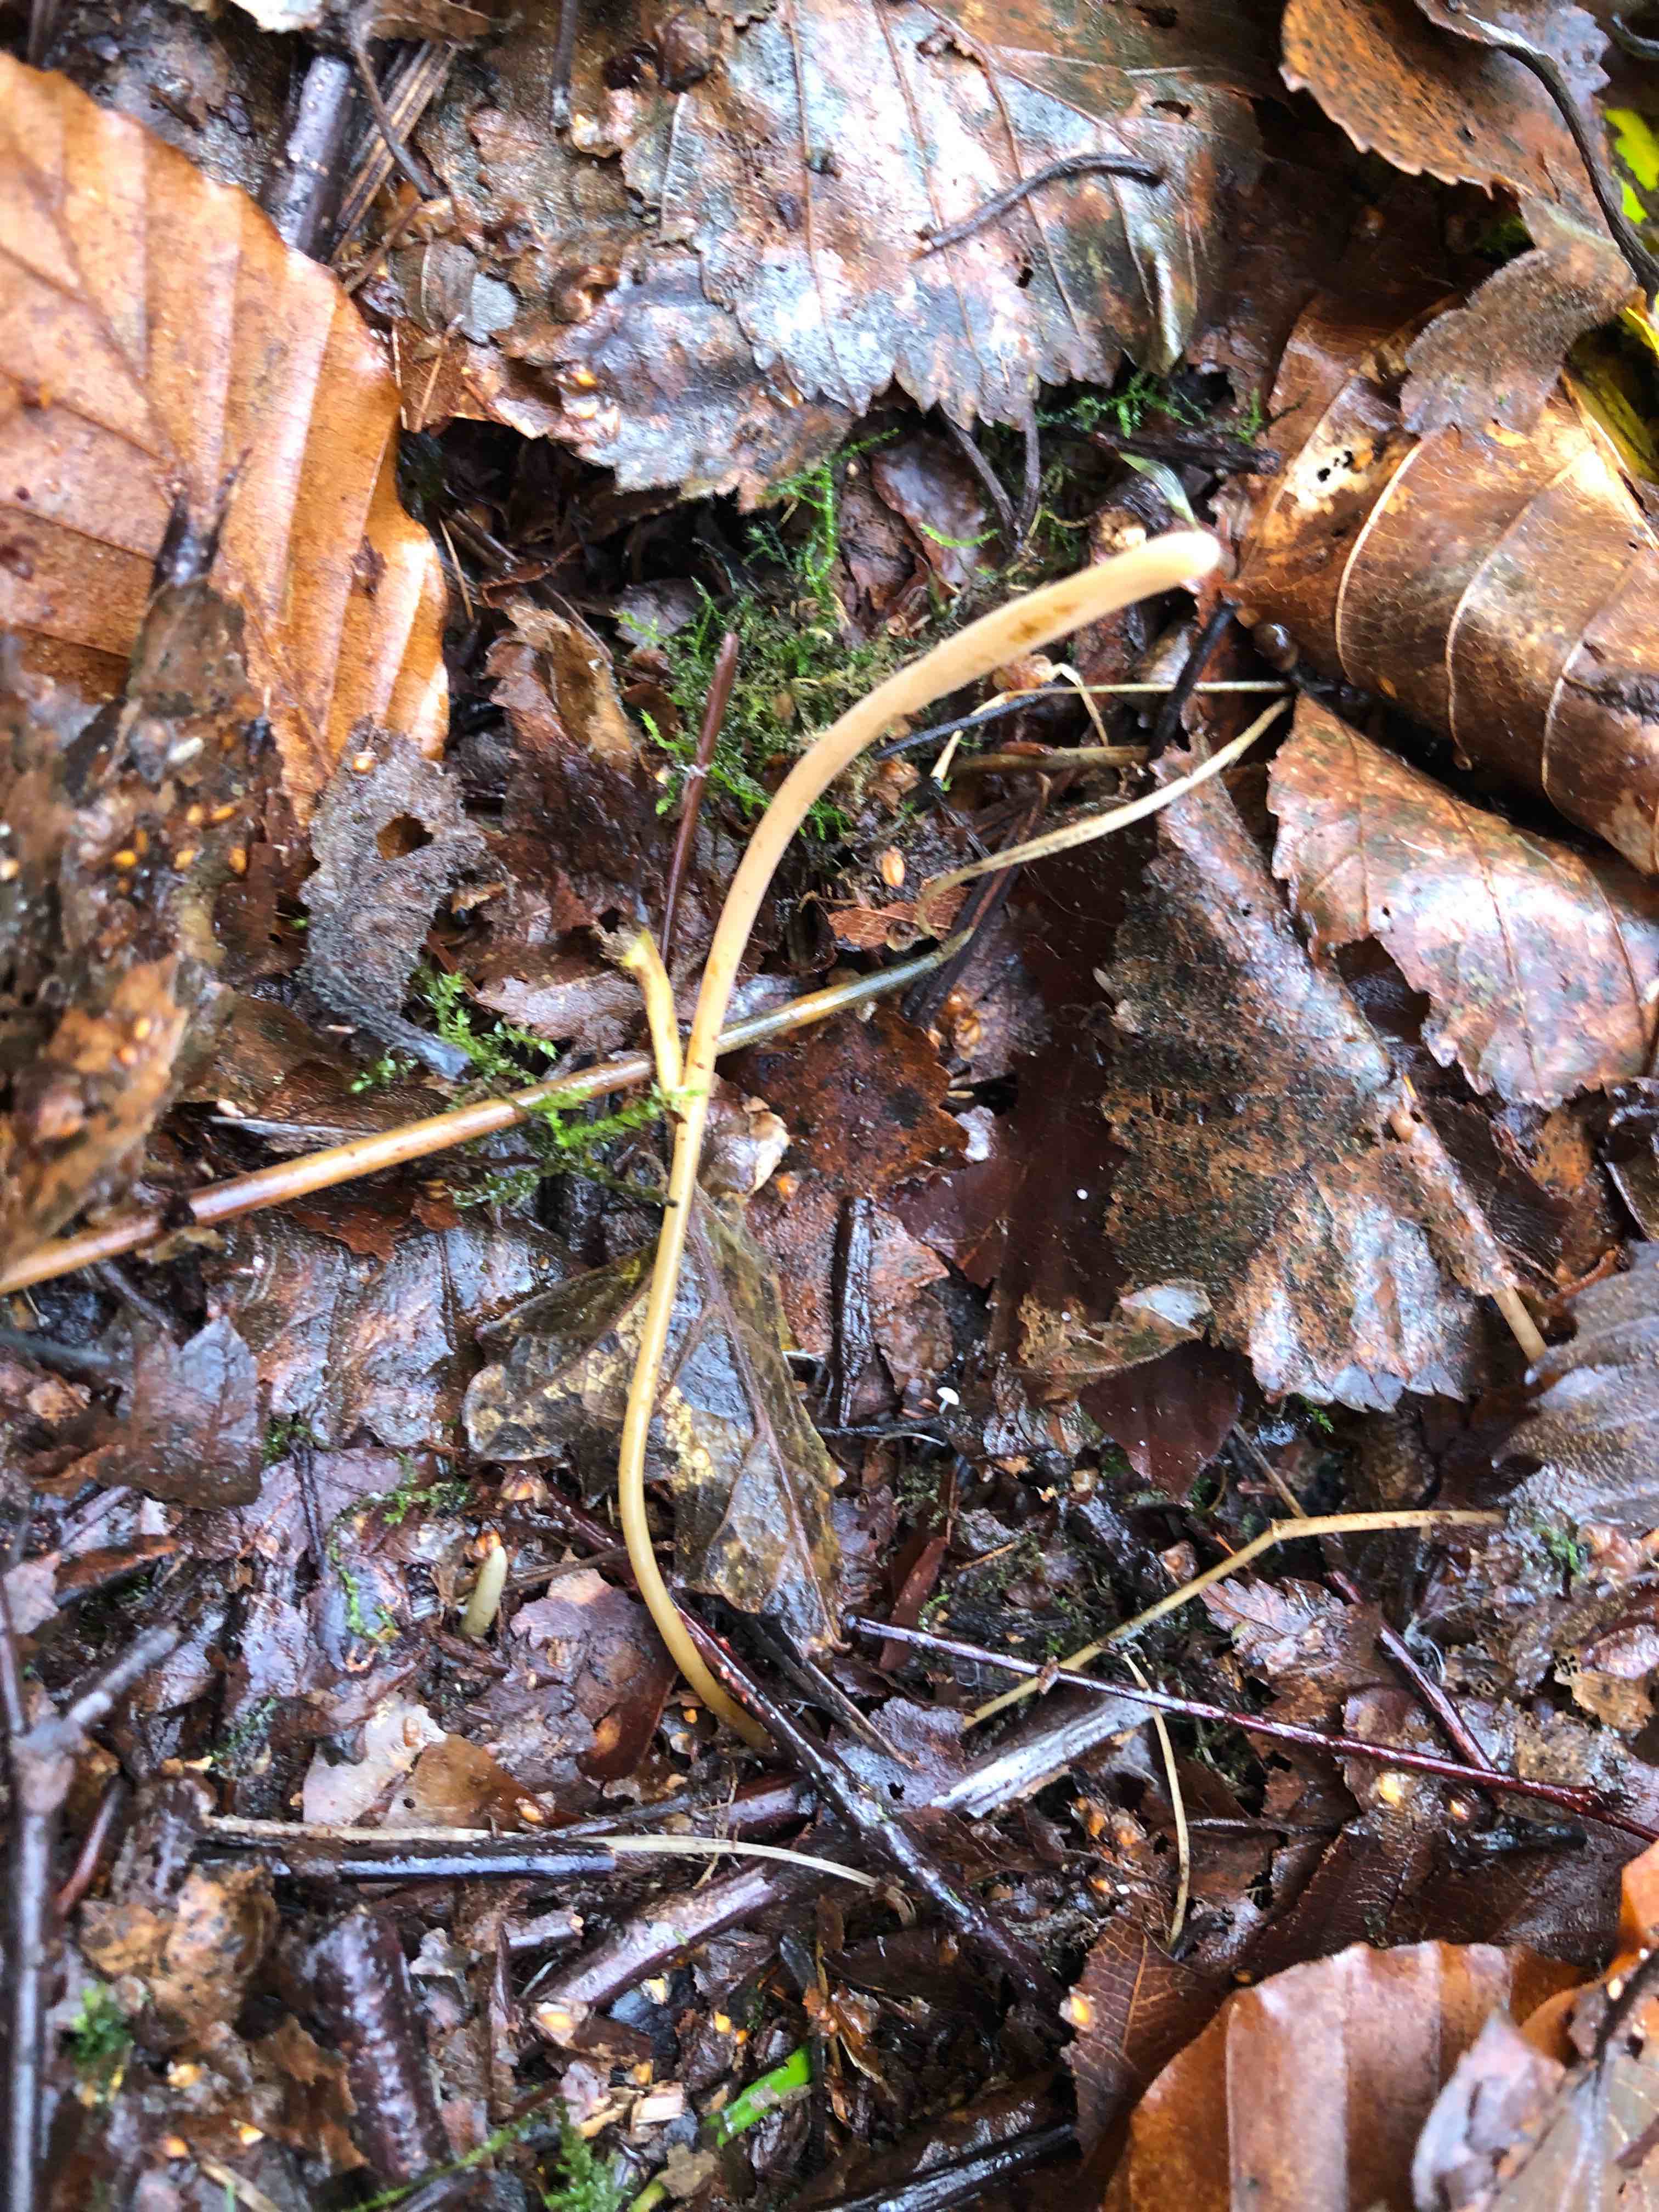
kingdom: Fungi
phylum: Basidiomycota
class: Agaricomycetes
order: Agaricales
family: Typhulaceae
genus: Typhula
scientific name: Typhula fistulosa
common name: pibet rørkølle
